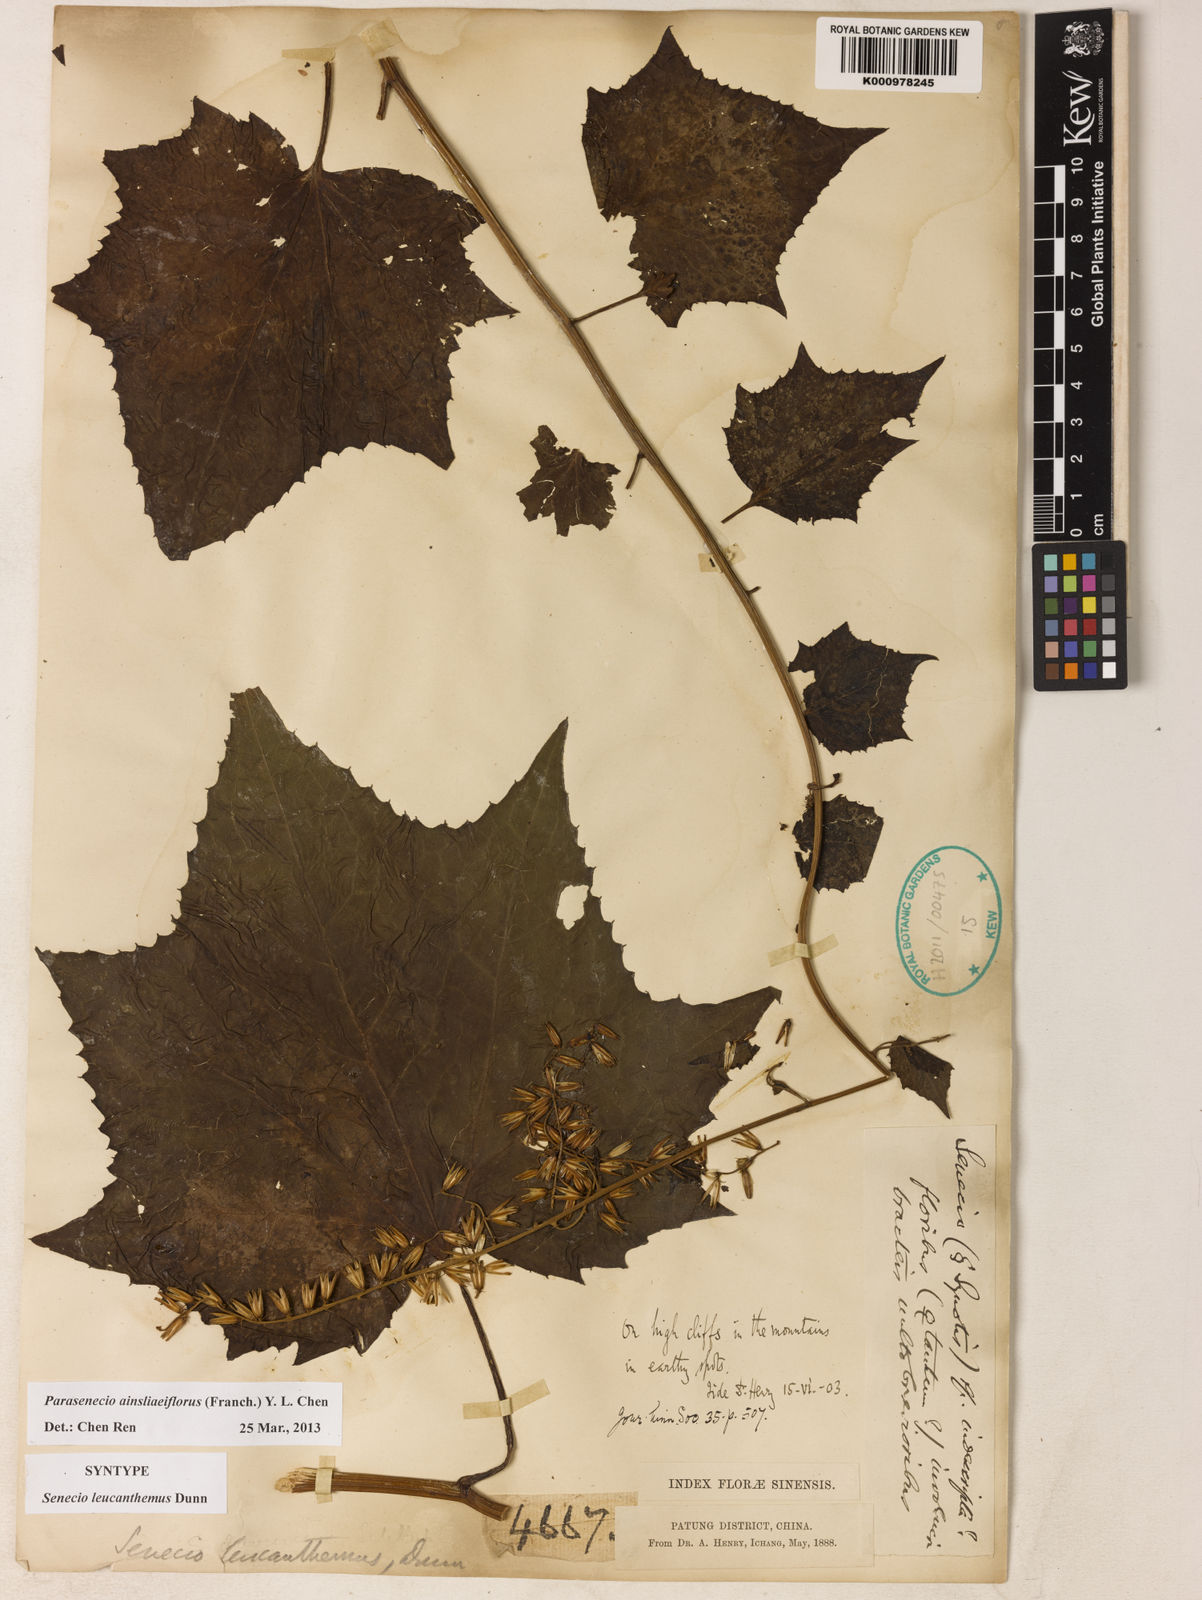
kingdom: Plantae
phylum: Tracheophyta
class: Magnoliopsida
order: Asterales
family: Asteraceae
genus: Parasenecio
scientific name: Parasenecio ainsliaeiflorus
